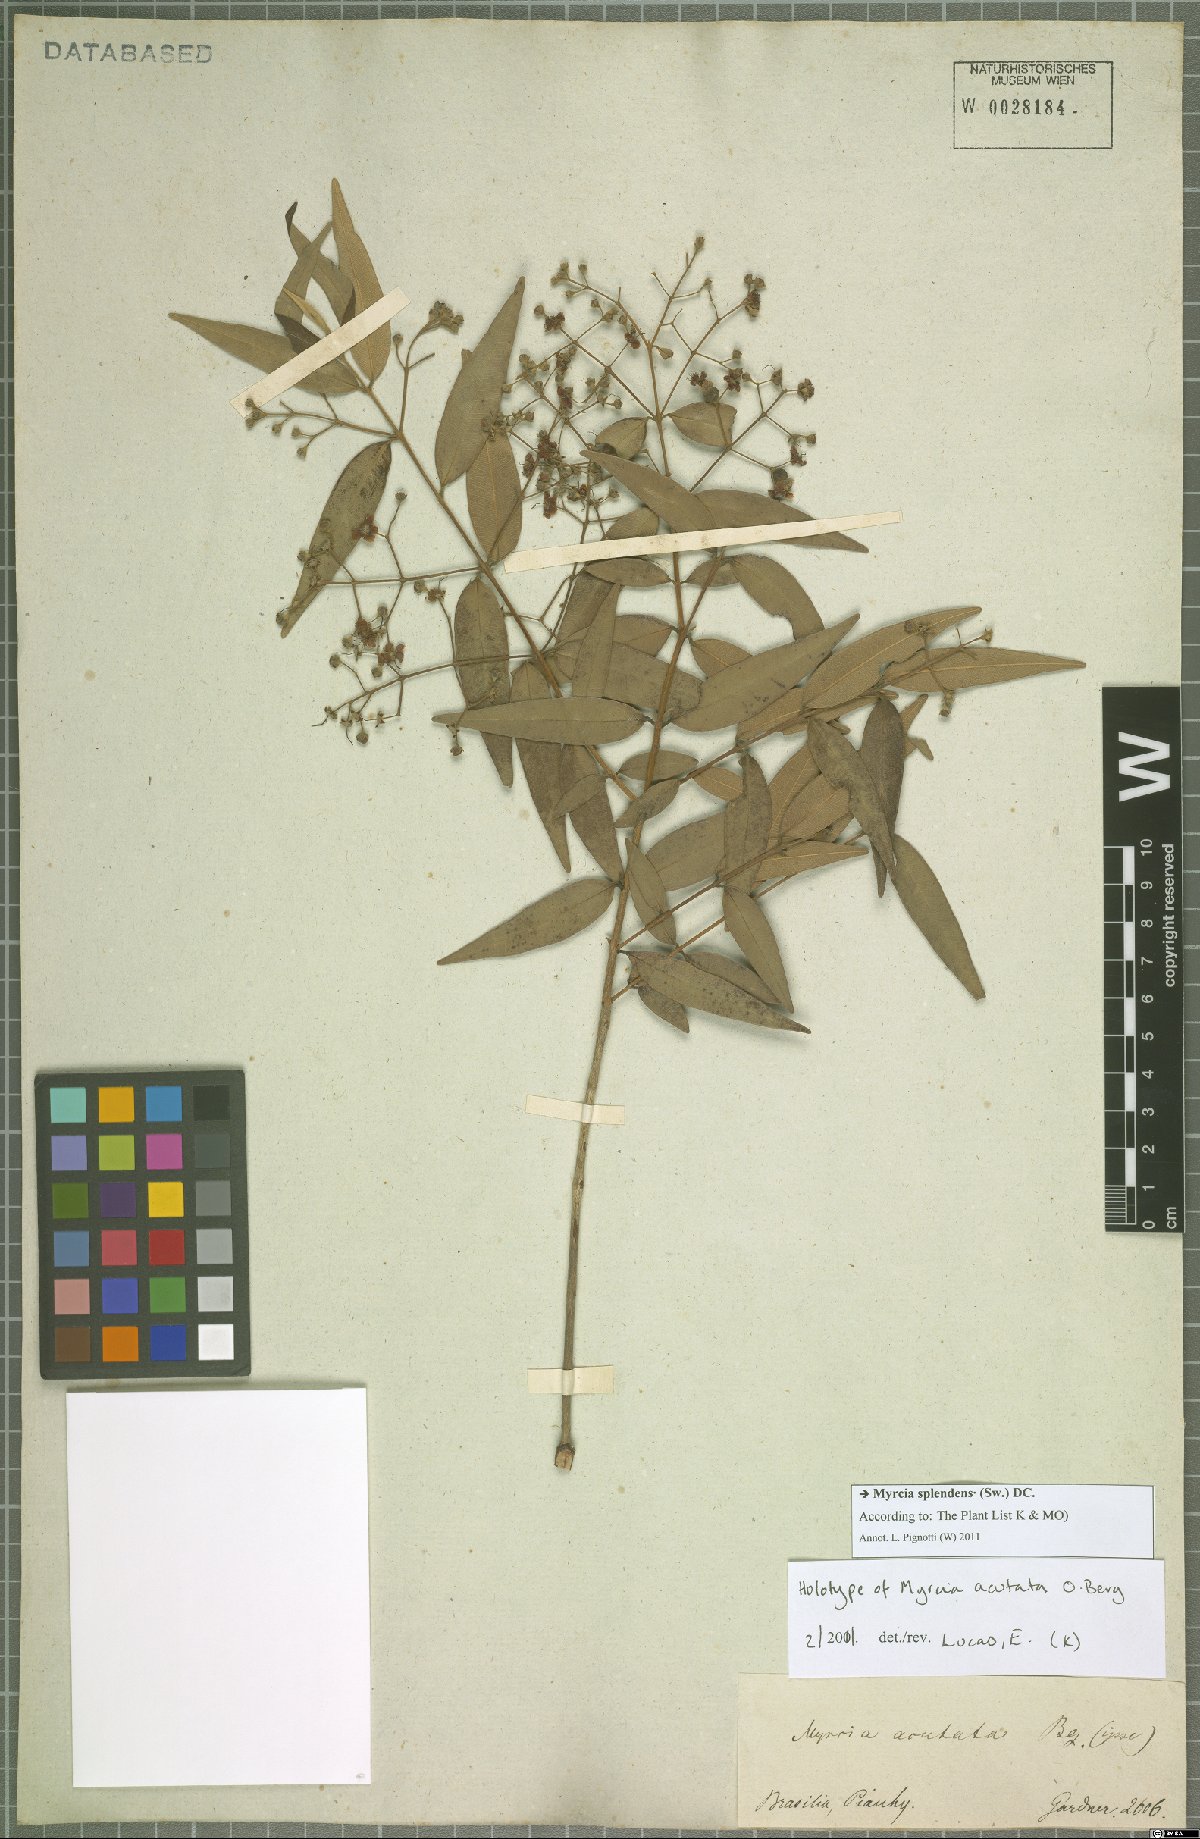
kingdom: Plantae
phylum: Tracheophyta
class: Magnoliopsida
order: Myrtales
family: Myrtaceae
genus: Myrcia
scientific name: Myrcia splendens
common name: Surinam cherry
